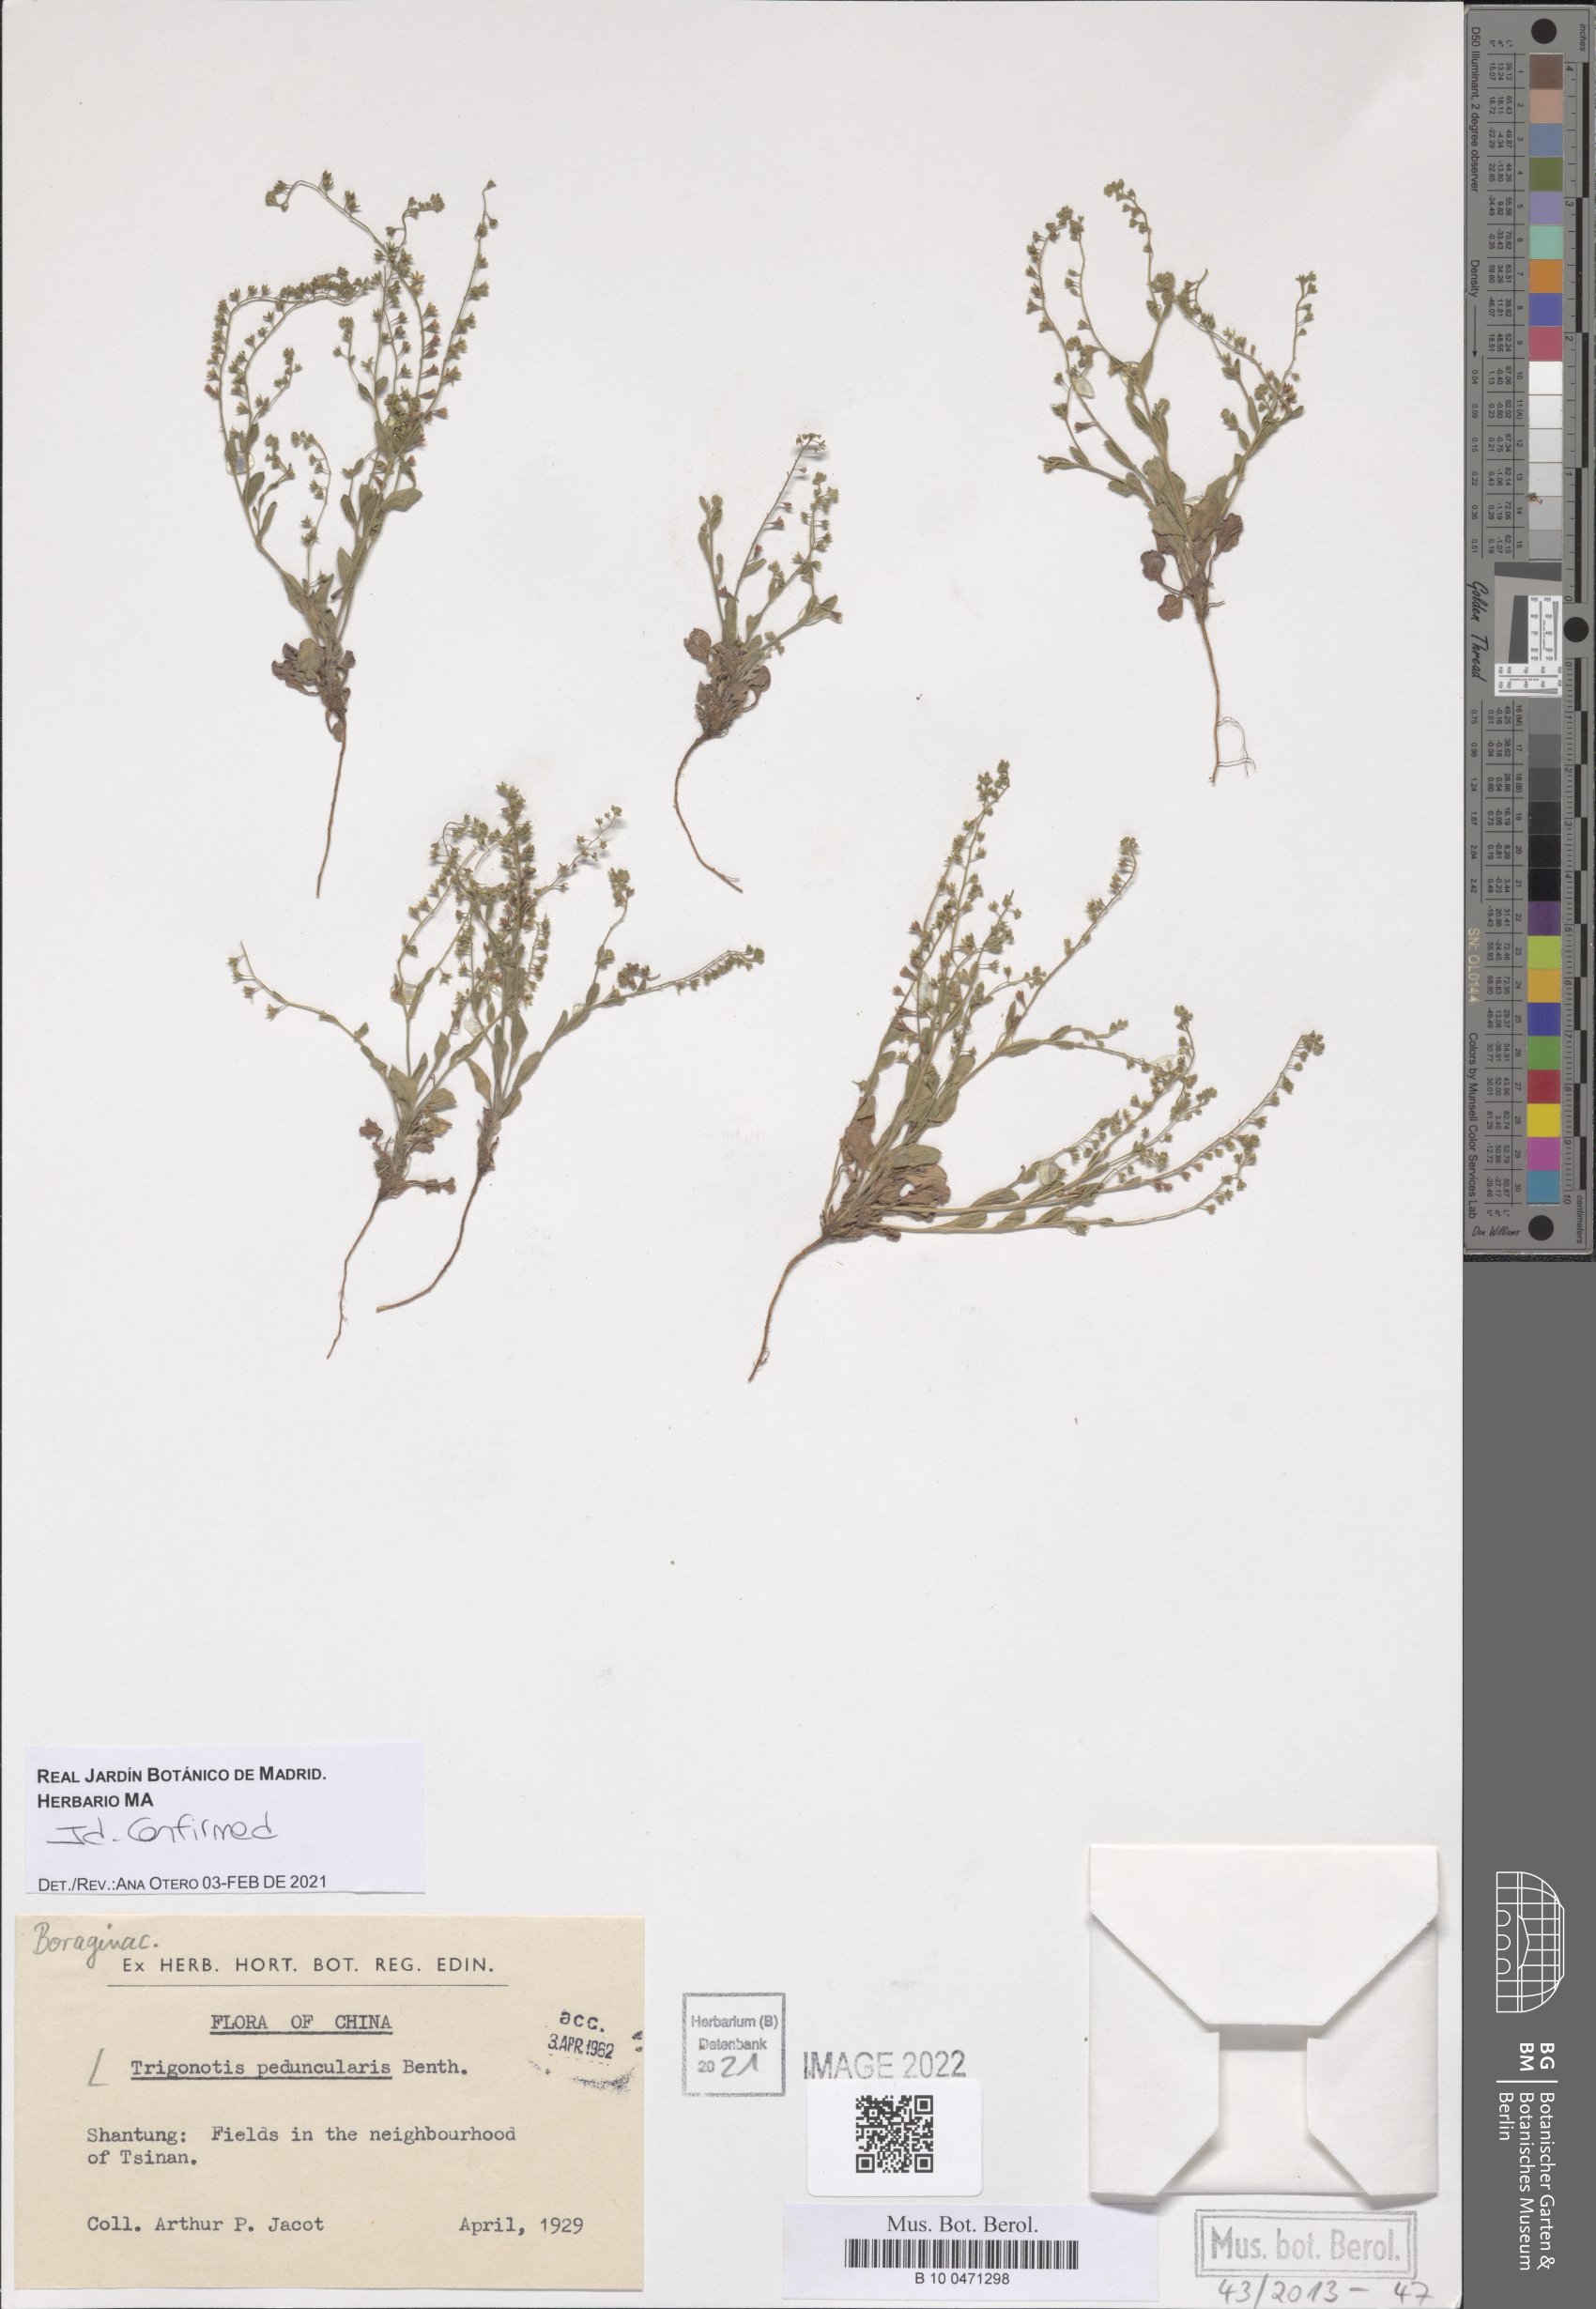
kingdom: Plantae
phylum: Tracheophyta
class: Magnoliopsida
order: Boraginales
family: Boraginaceae
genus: Trigonotis
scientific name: Trigonotis peduncularis
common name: Cucumber herb
